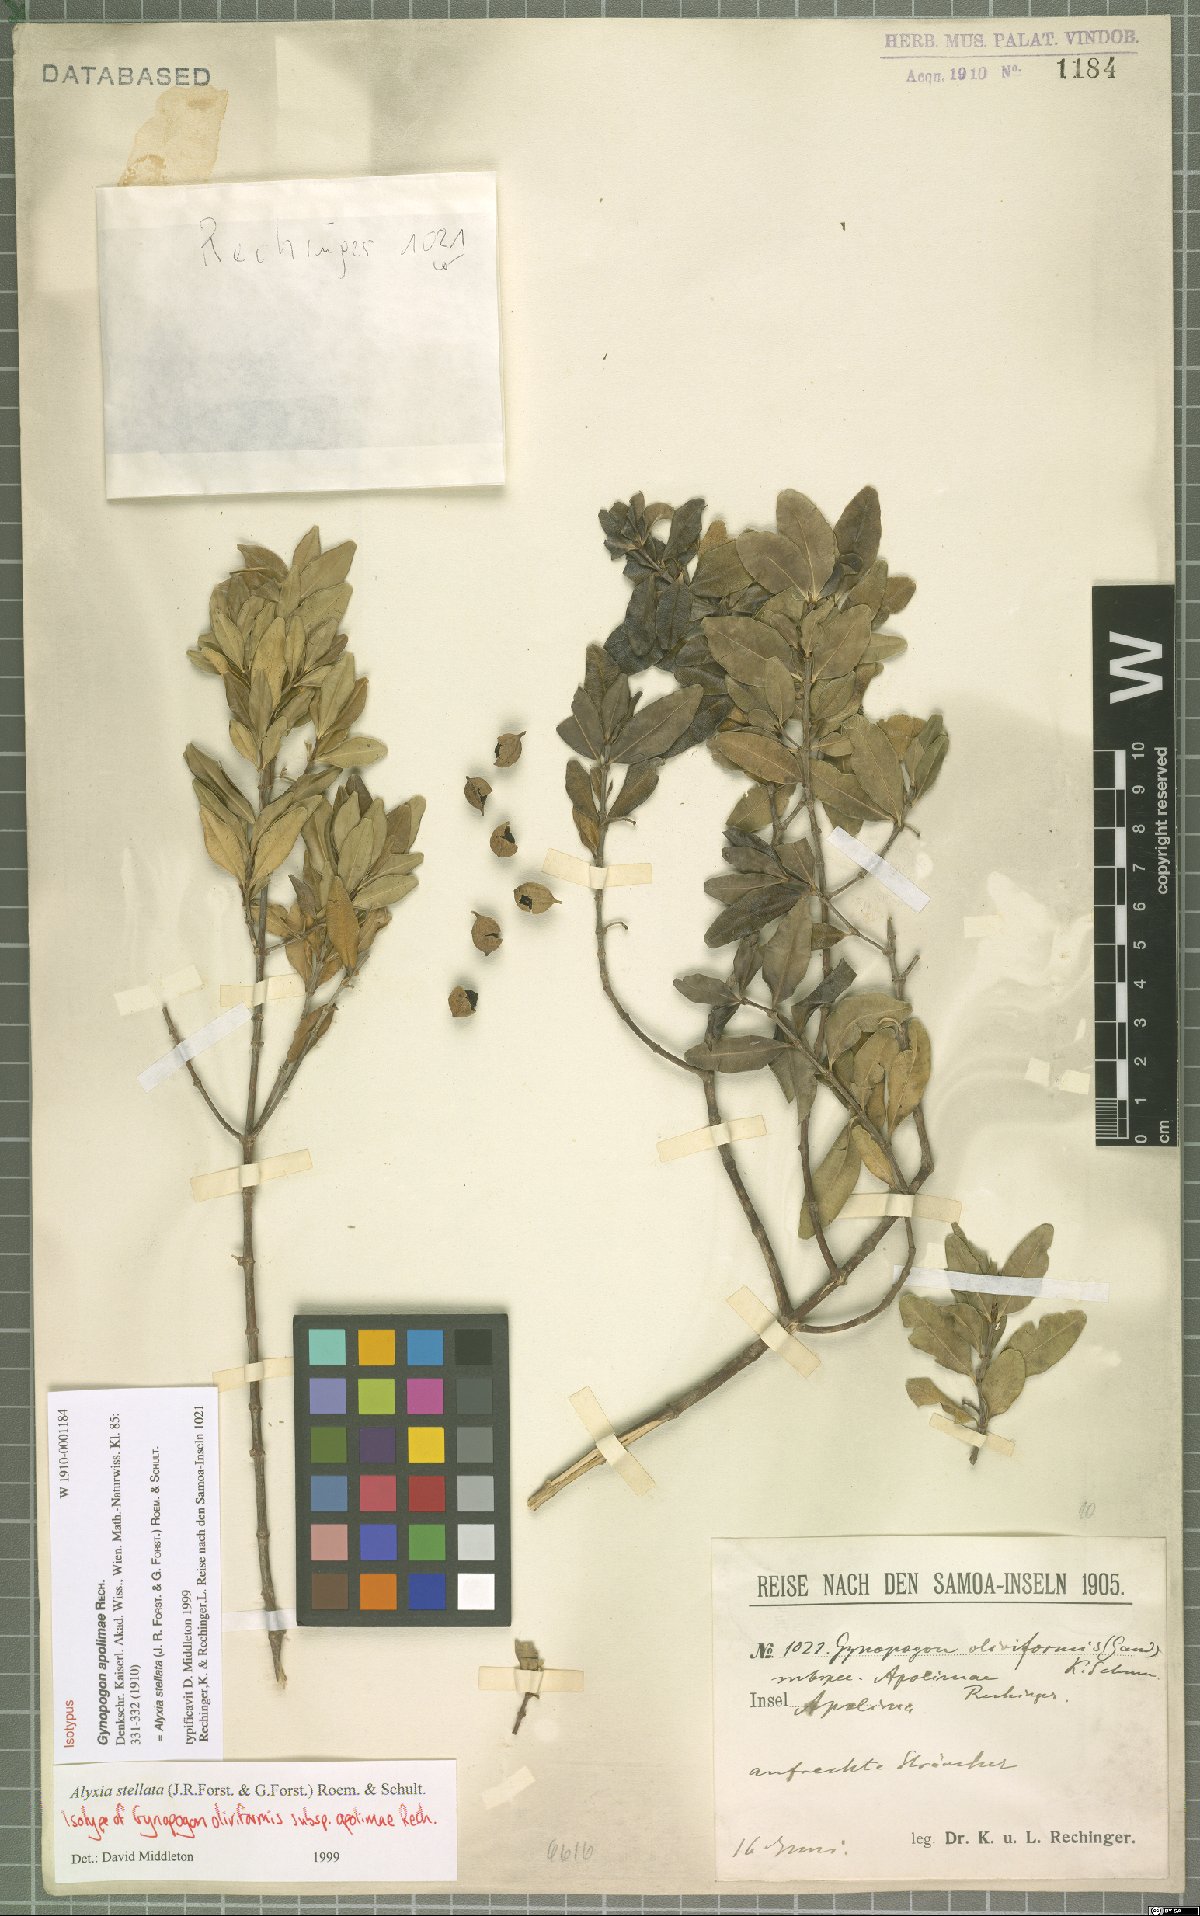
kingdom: Plantae
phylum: Tracheophyta
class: Magnoliopsida
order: Gentianales
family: Apocynaceae
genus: Alyxia
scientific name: Alyxia stellata
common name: Maile
